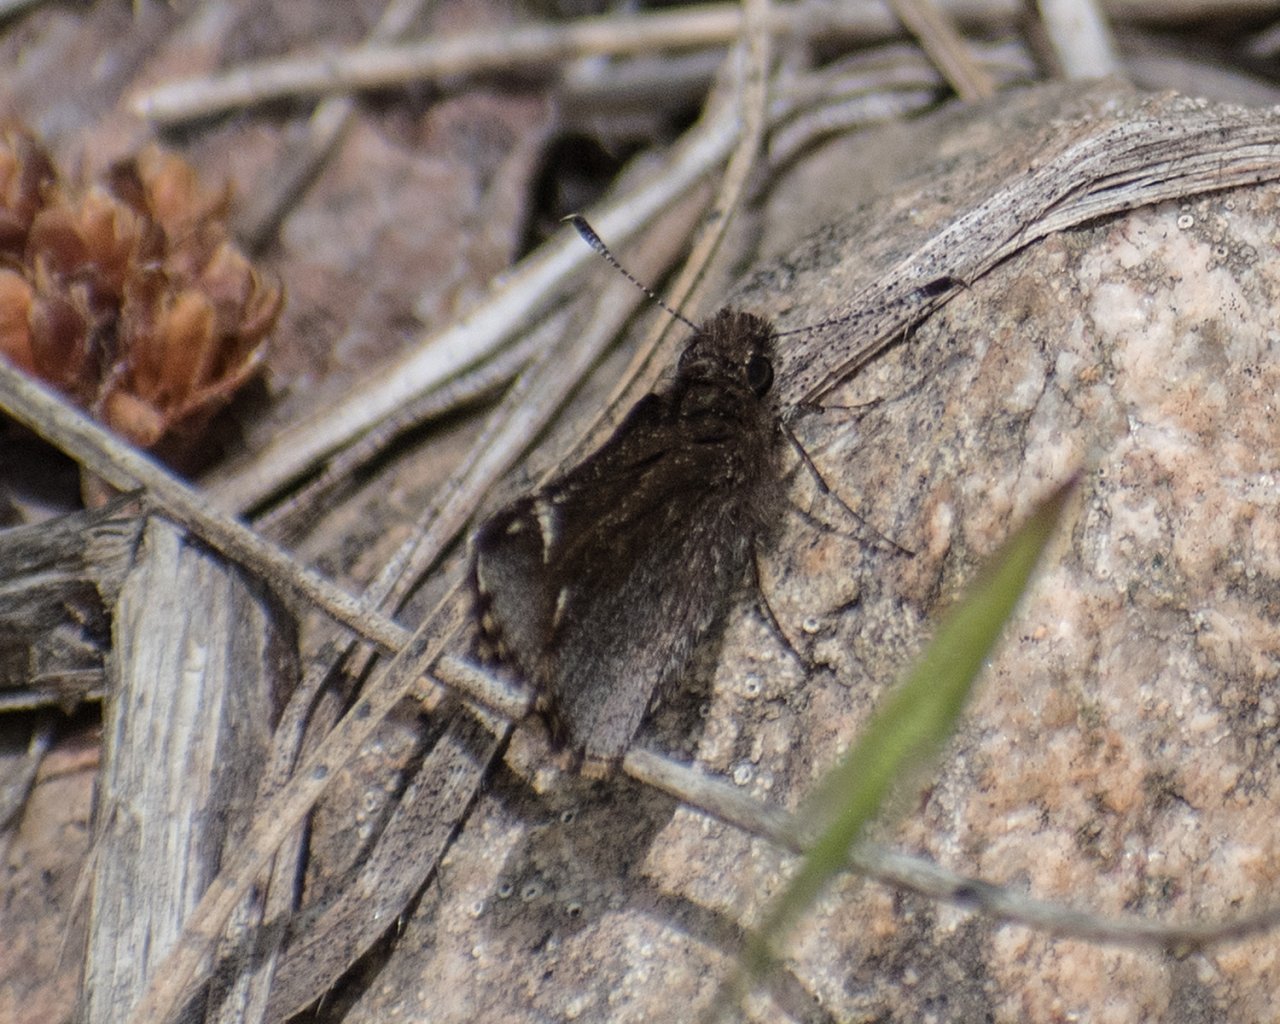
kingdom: Animalia
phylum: Arthropoda
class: Insecta
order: Lepidoptera
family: Hesperiidae
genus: Mastor
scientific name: Mastor vialis
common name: Common Roadside-Skipper
